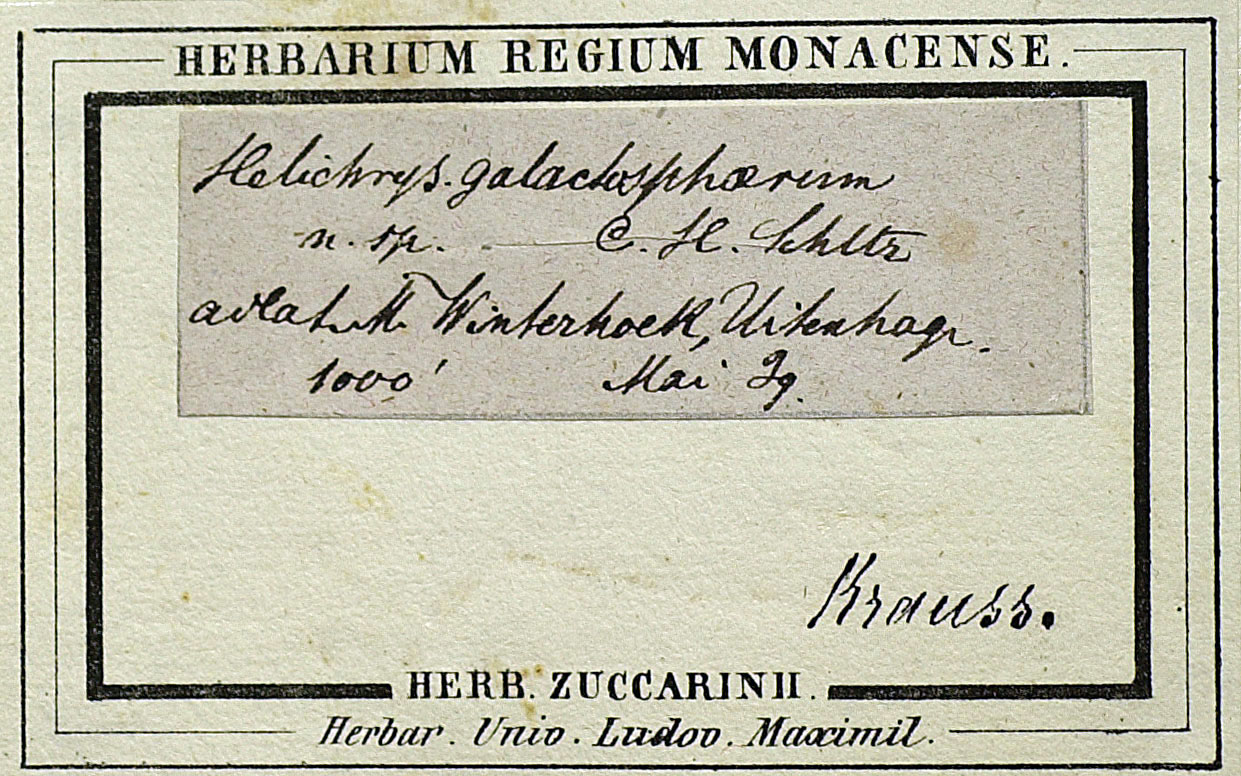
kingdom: Plantae
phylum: Tracheophyta
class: Magnoliopsida
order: Asterales
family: Asteraceae
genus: Helichrysum
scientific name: Helichrysum rugulosum
